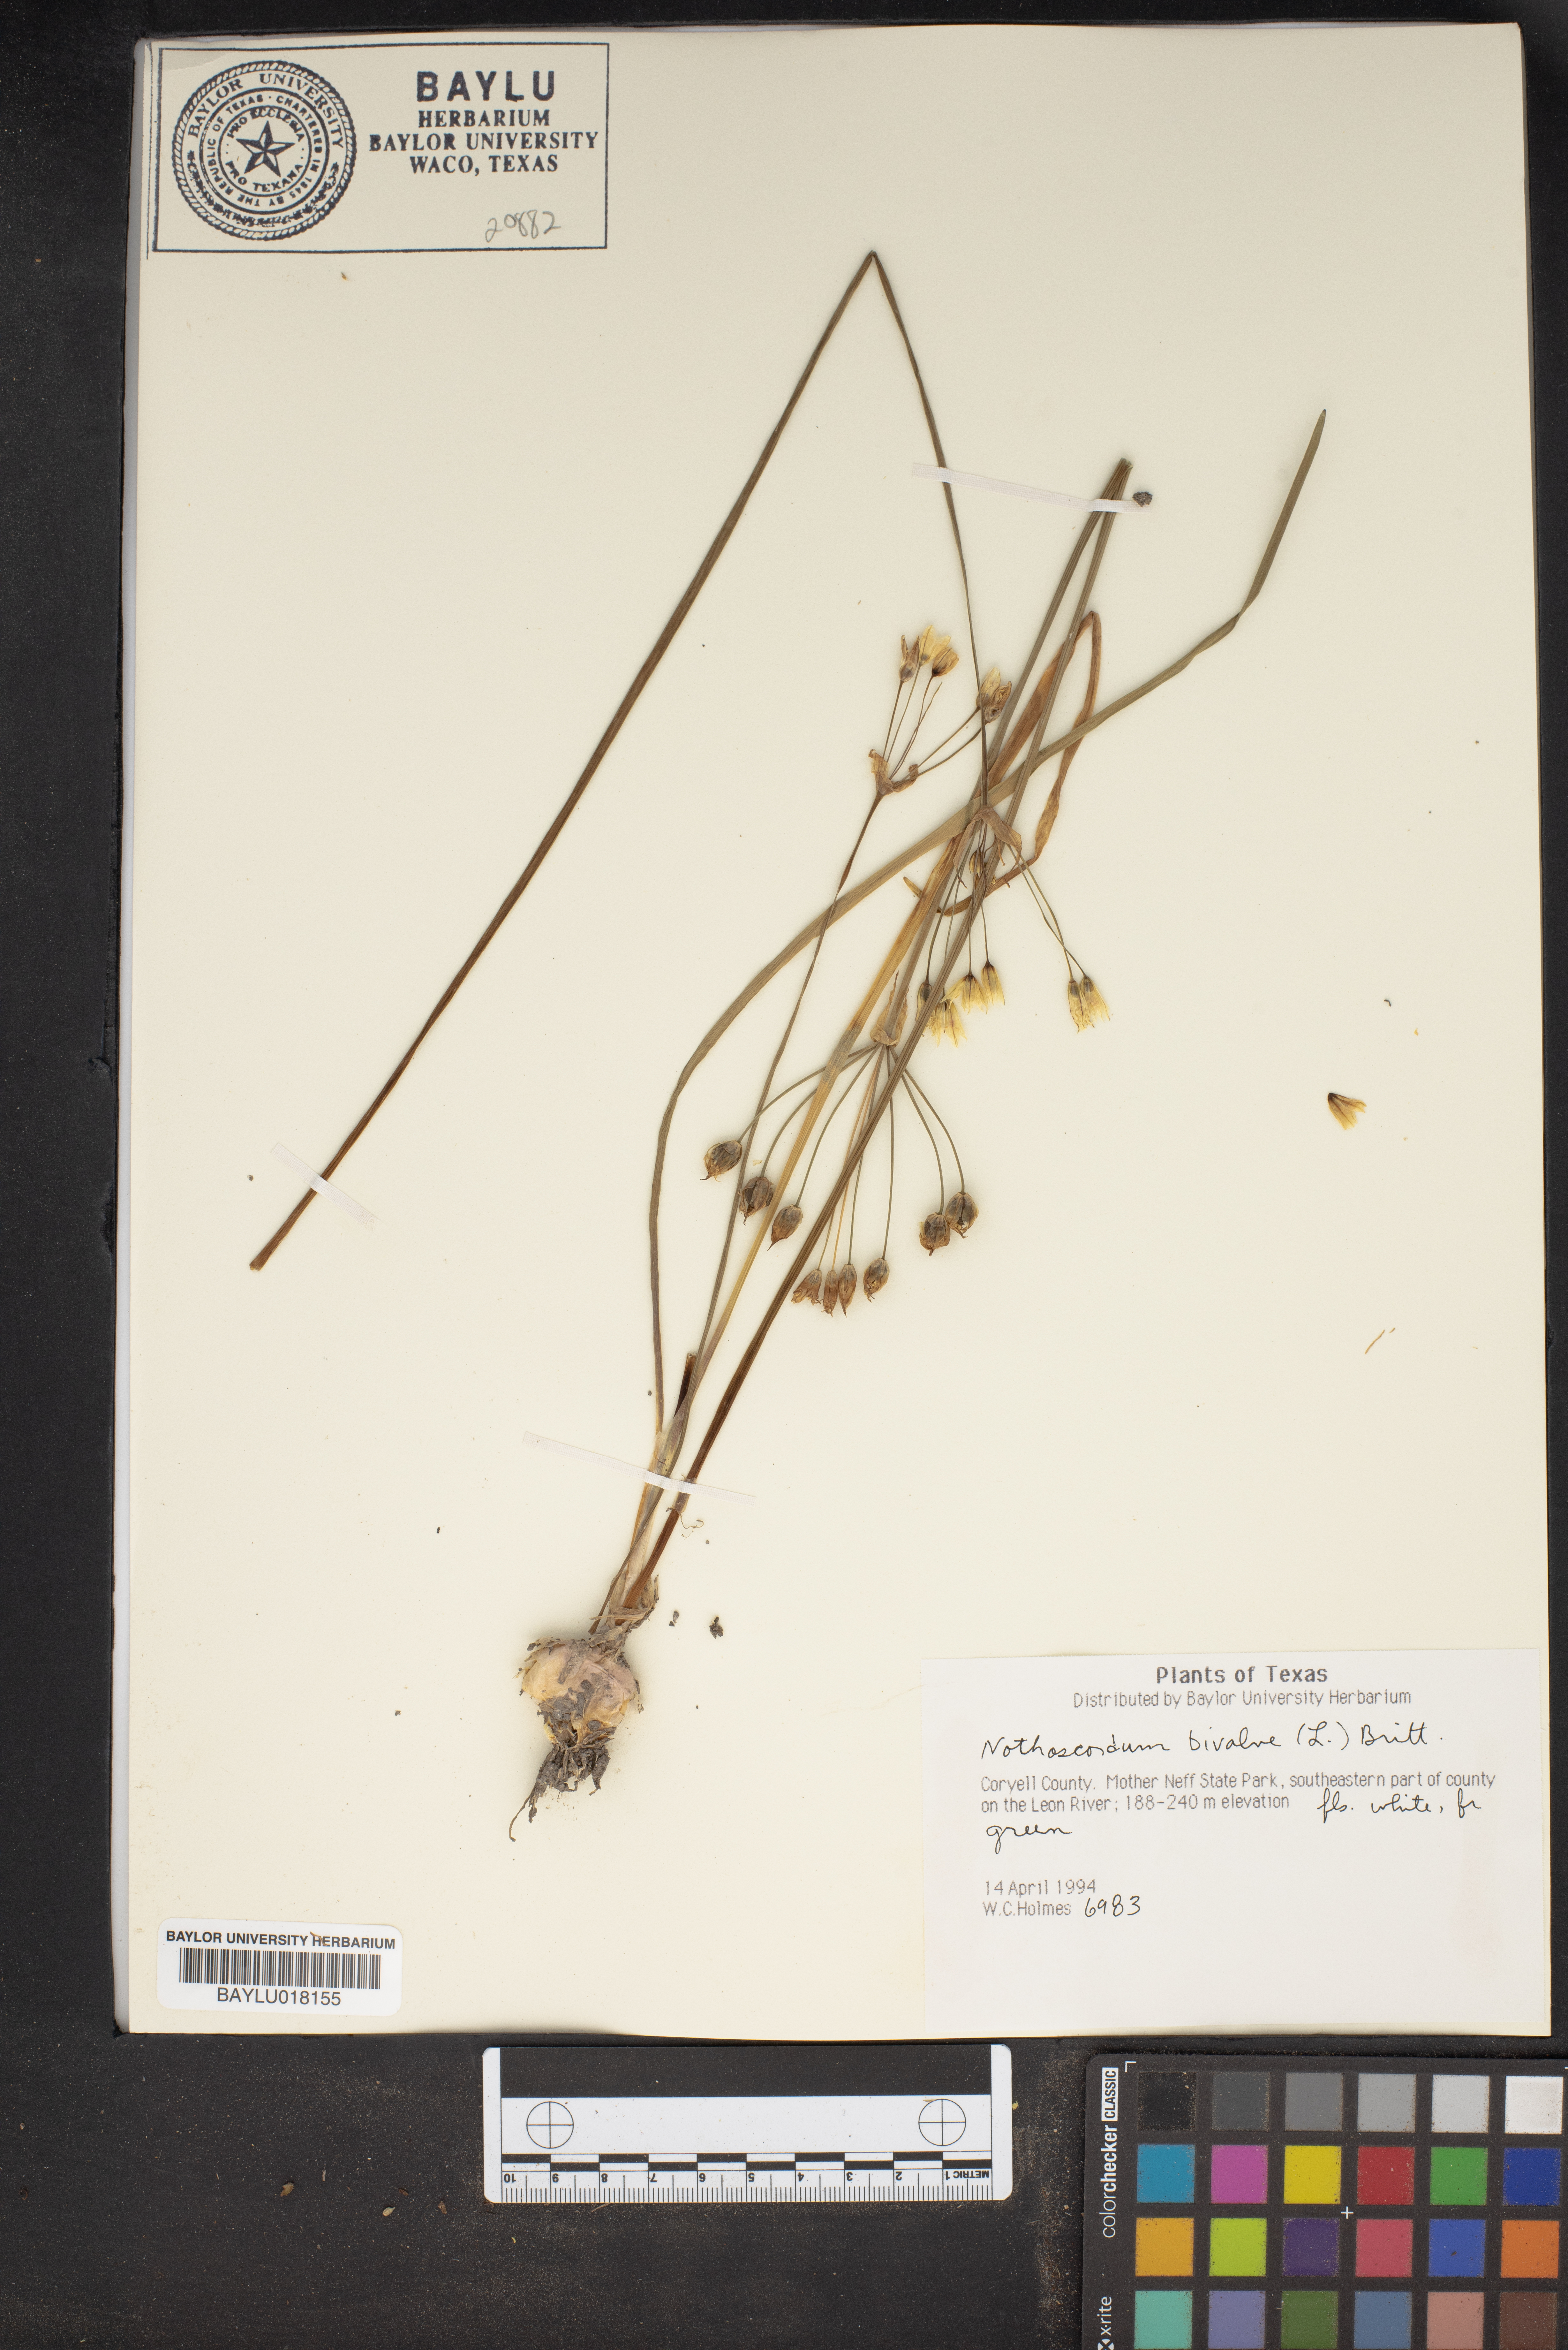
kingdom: Plantae
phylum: Tracheophyta
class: Liliopsida
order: Asparagales
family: Amaryllidaceae
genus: Nothoscordum
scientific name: Nothoscordum bivalve
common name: Crow-poison
